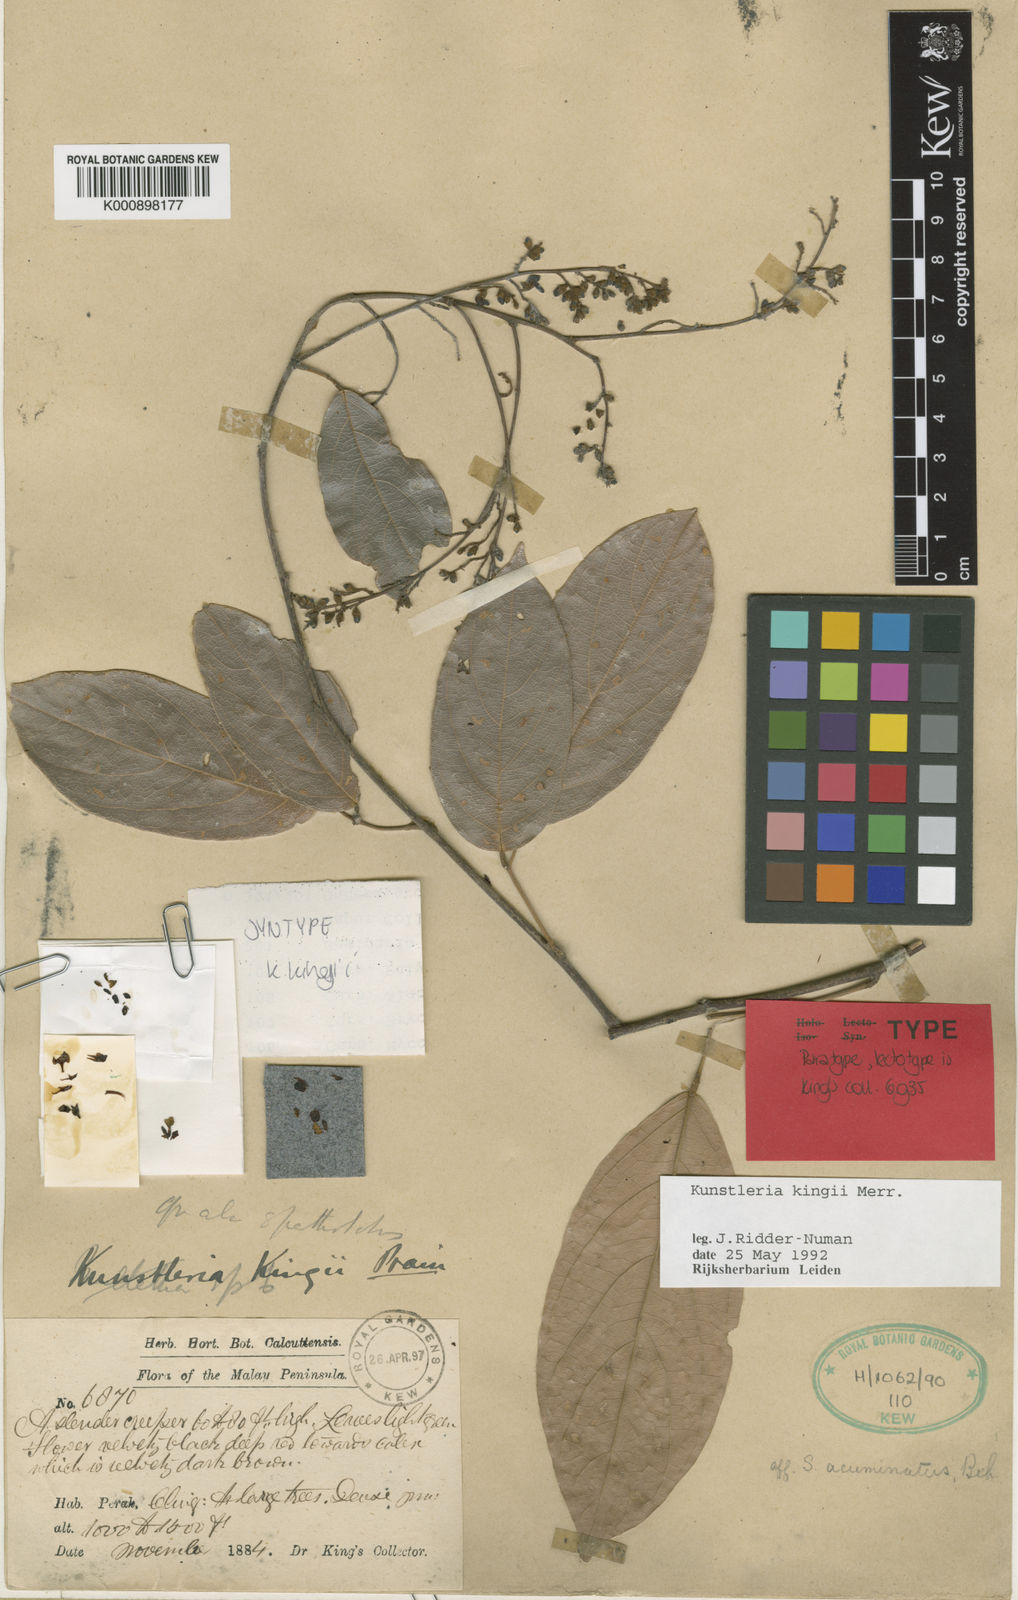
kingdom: Plantae
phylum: Tracheophyta
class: Magnoliopsida
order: Fabales
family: Fabaceae
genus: Kunstleria
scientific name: Kunstleria kingii
